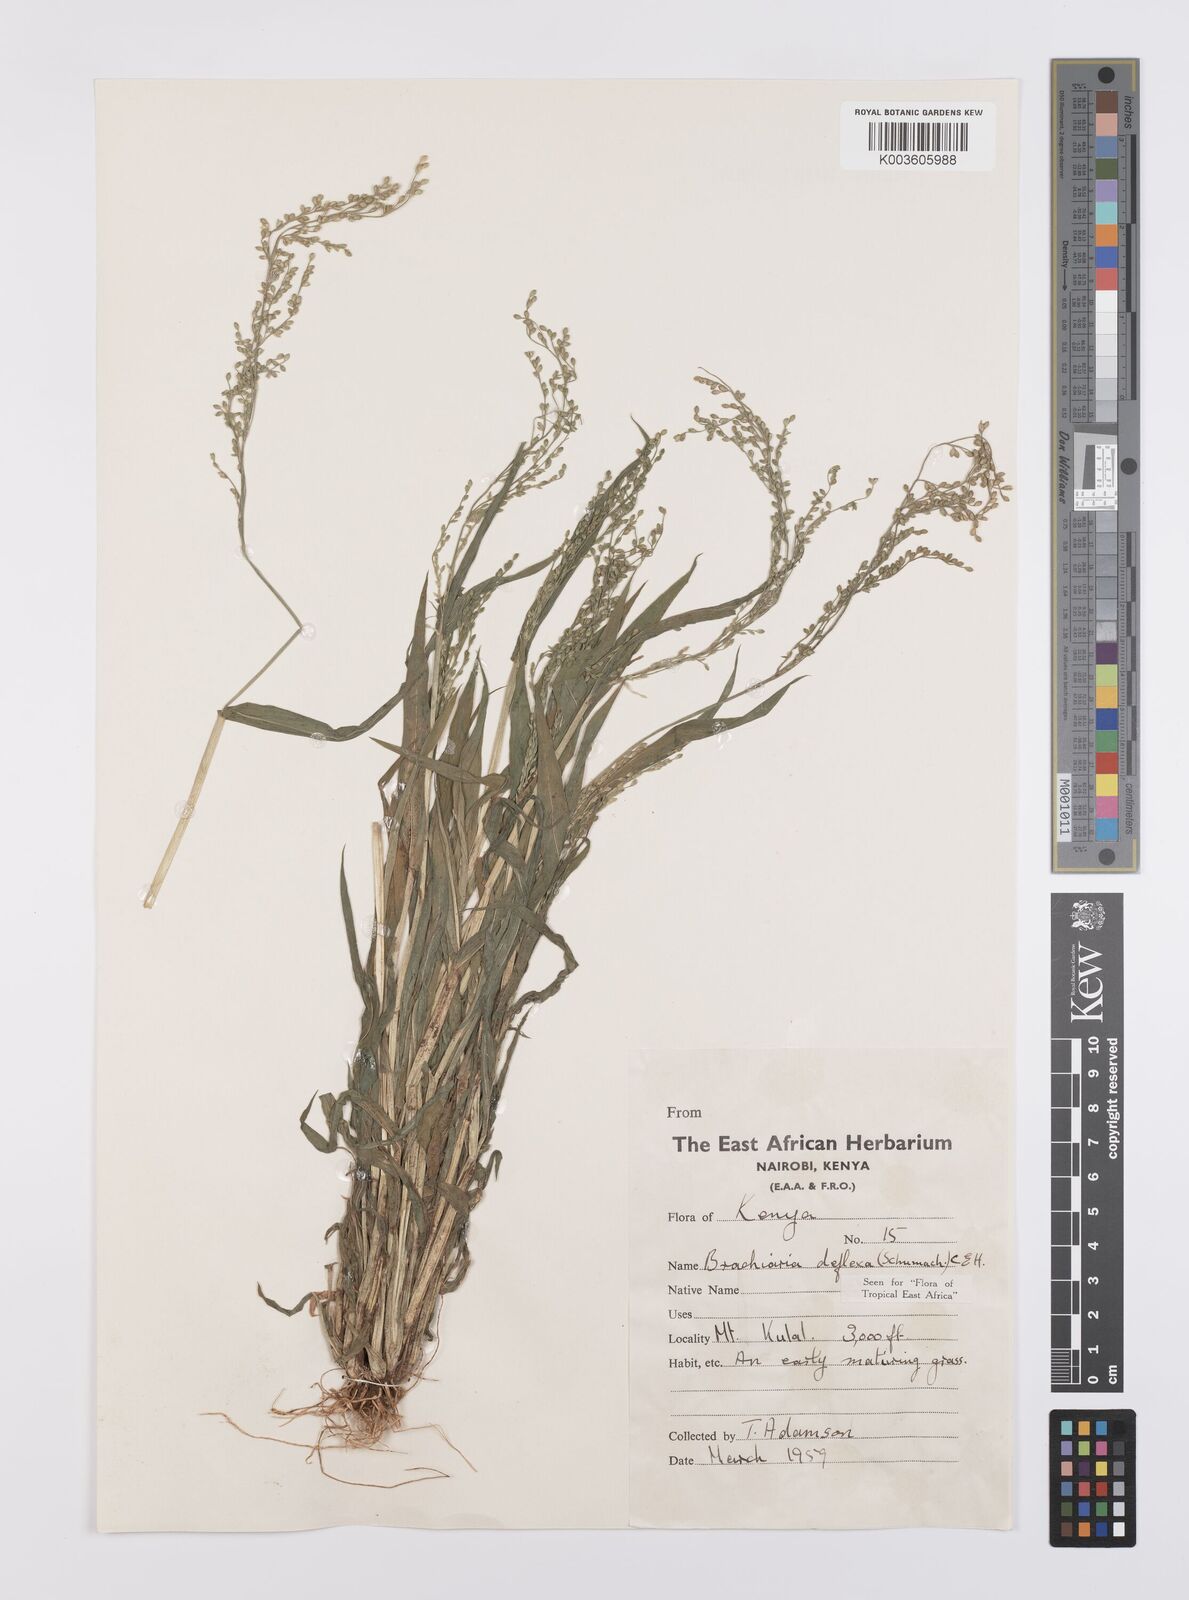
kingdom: Plantae
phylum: Tracheophyta
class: Liliopsida
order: Poales
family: Poaceae
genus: Urochloa
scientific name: Urochloa deflexa
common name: Guinea millet
